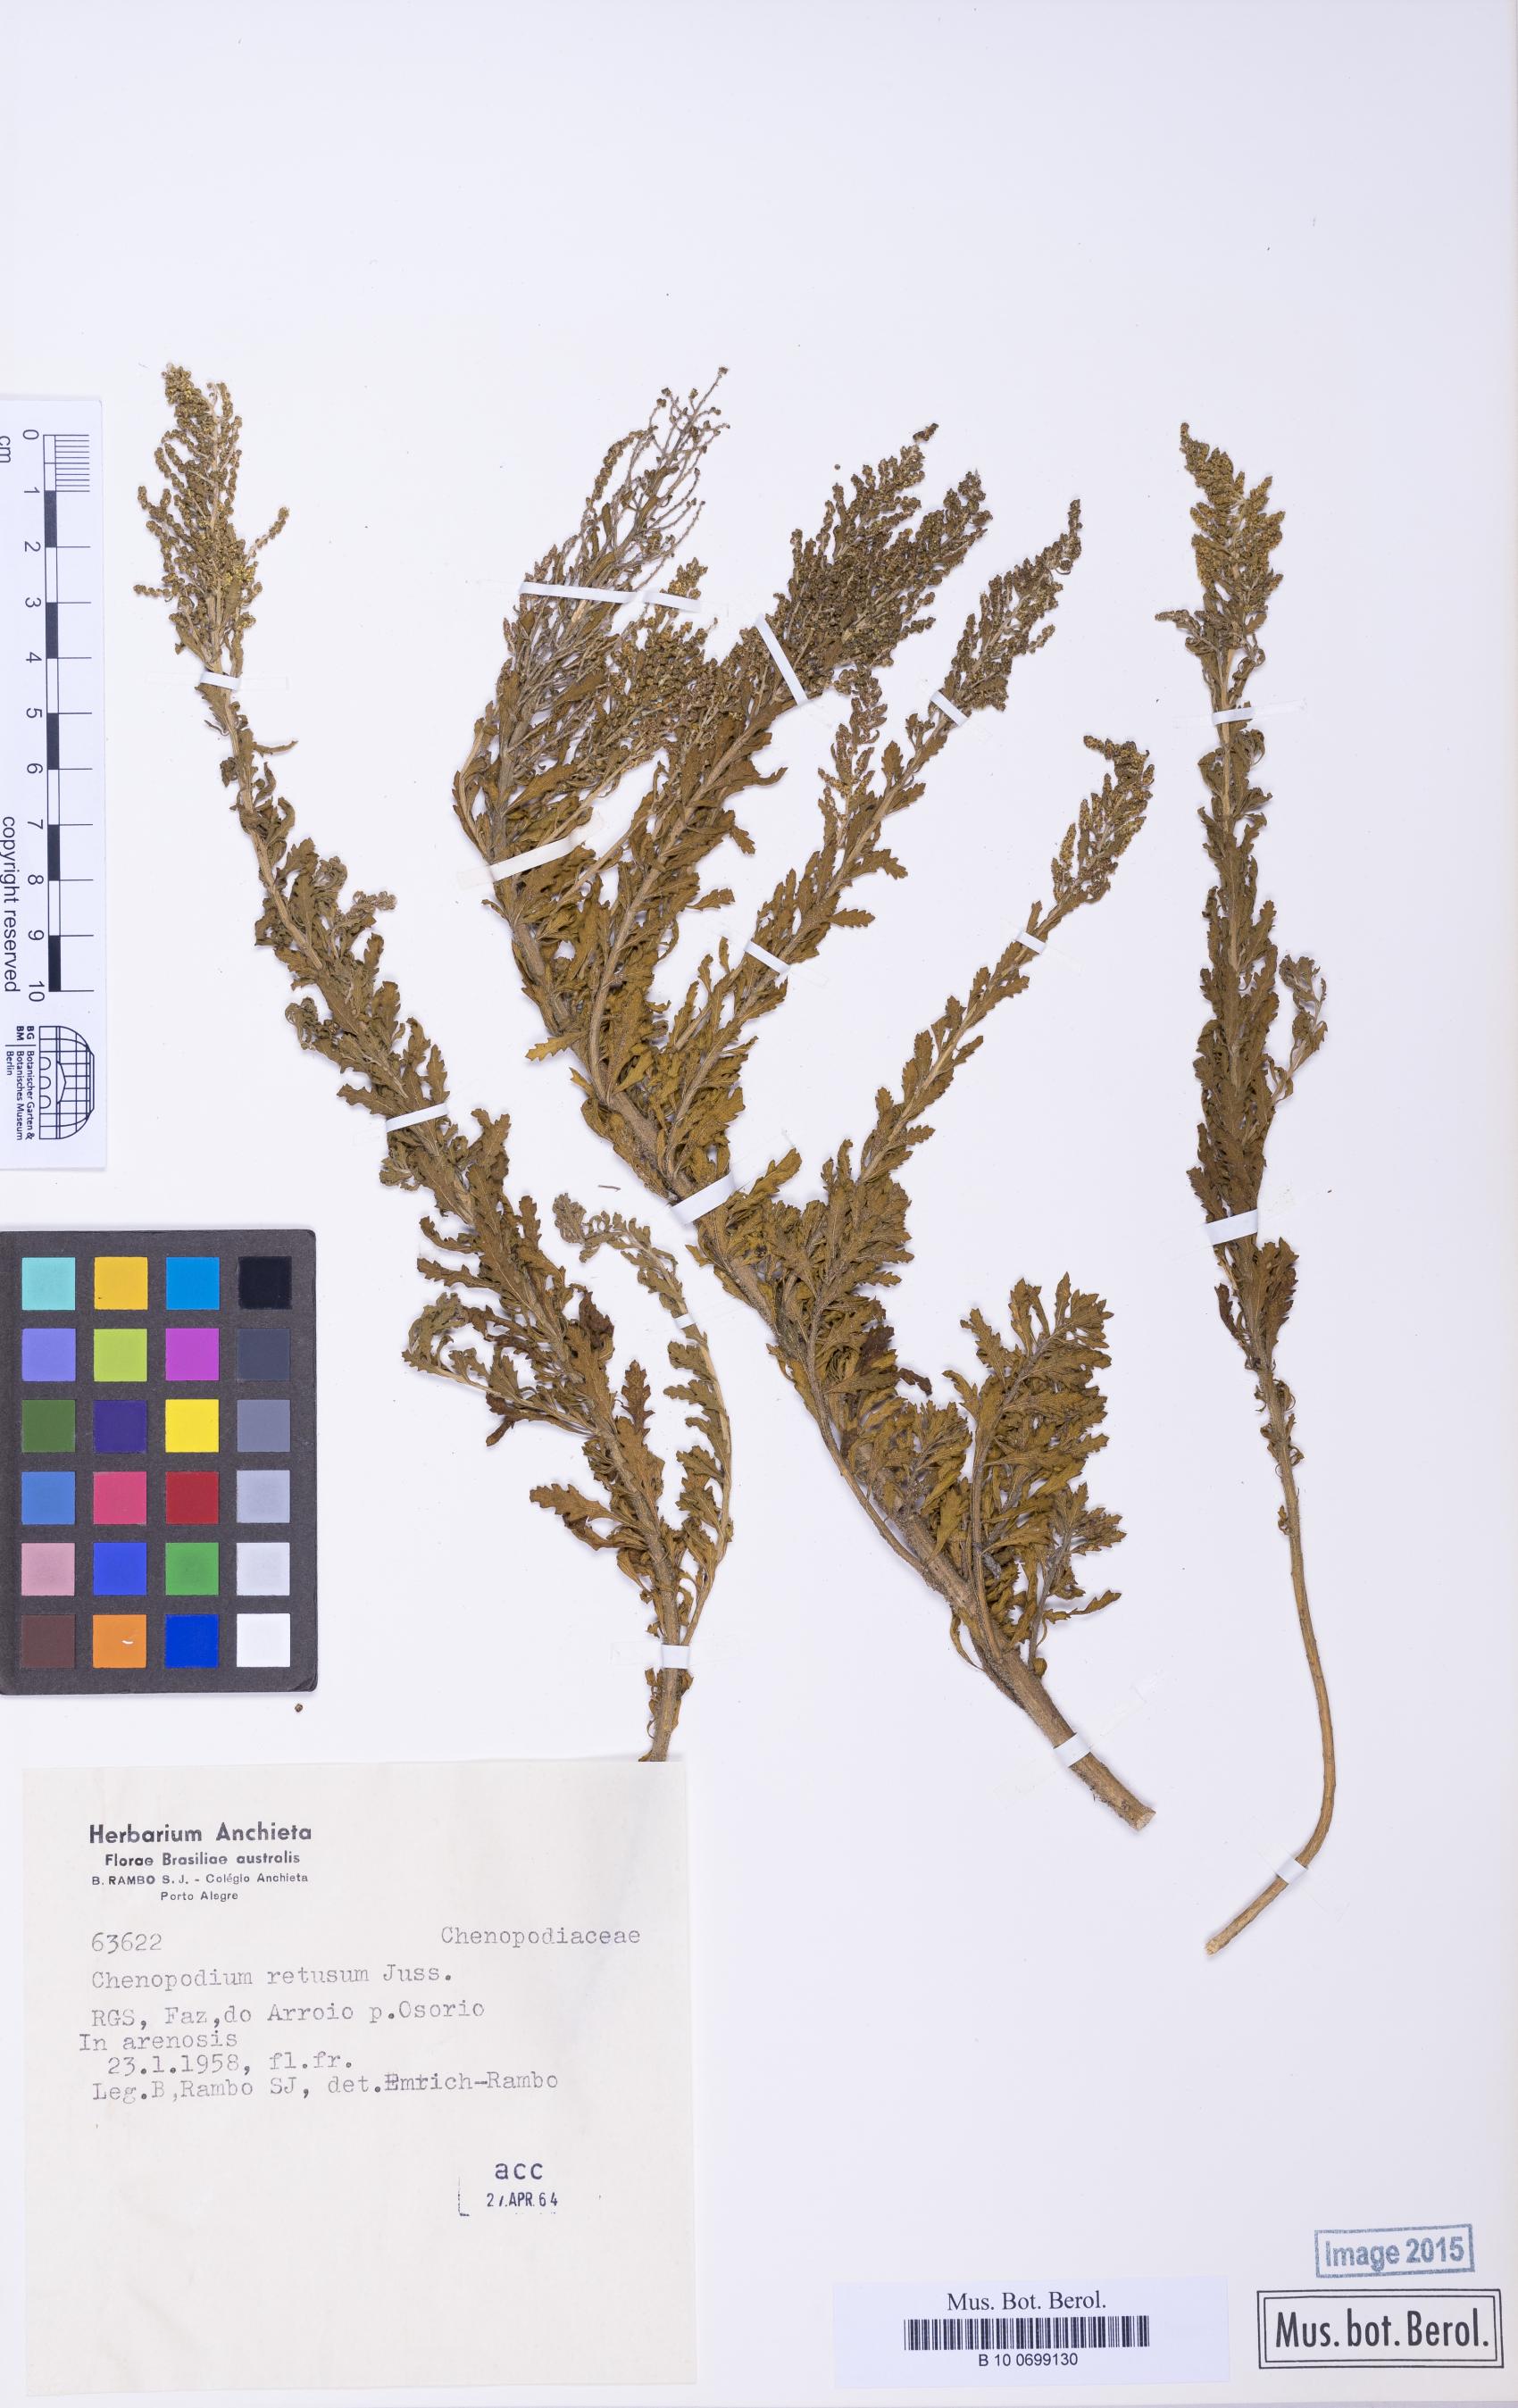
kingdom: Plantae
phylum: Tracheophyta
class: Magnoliopsida
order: Caryophyllales
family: Amaranthaceae
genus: Dysphania
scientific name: Dysphania retusa
